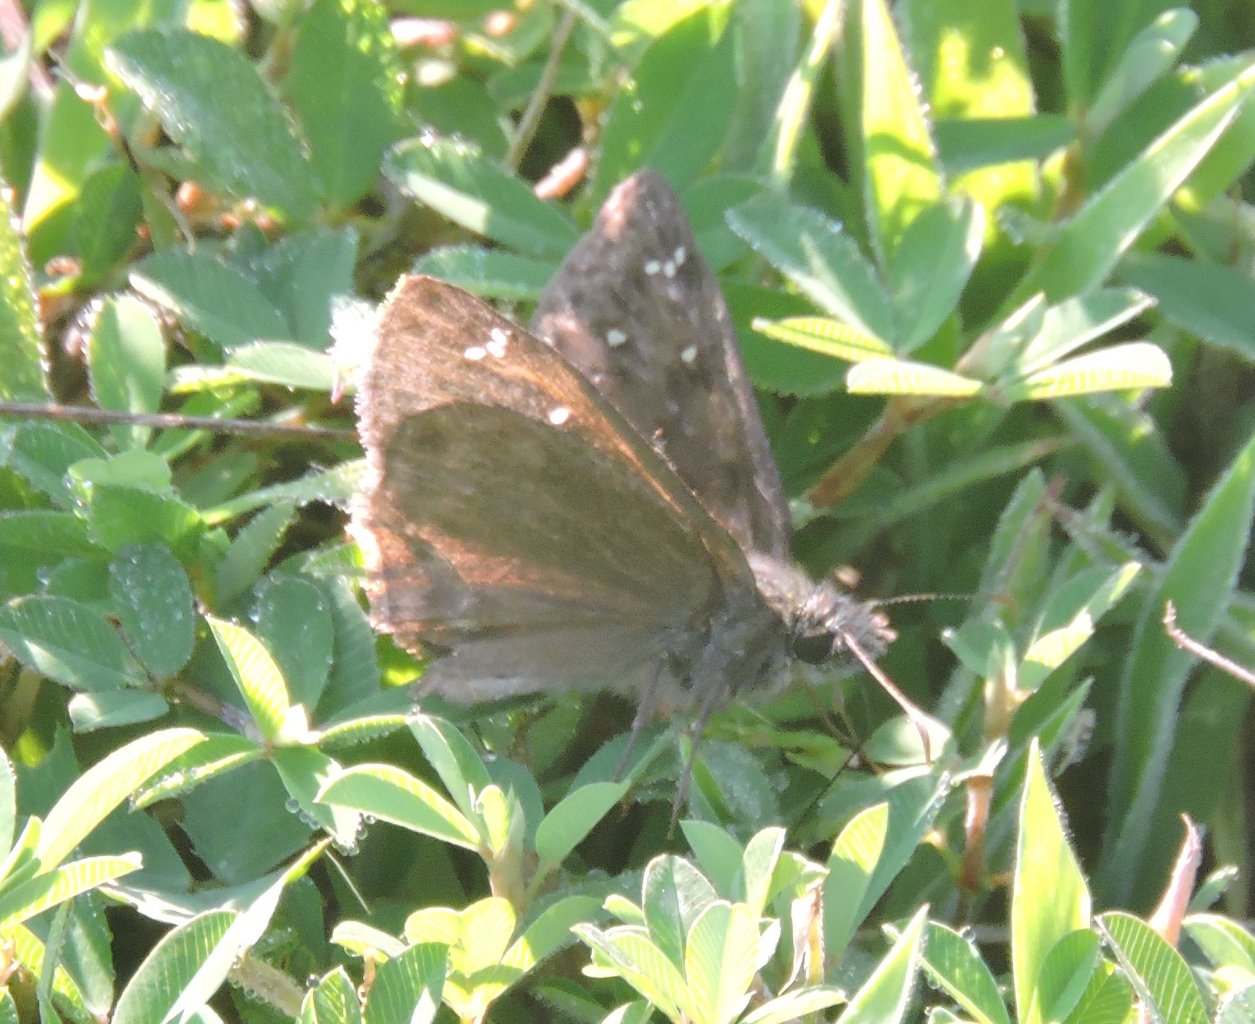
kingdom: Animalia
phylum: Arthropoda
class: Insecta
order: Lepidoptera
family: Hesperiidae
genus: Gesta
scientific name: Gesta
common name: Horace's Duskywing
